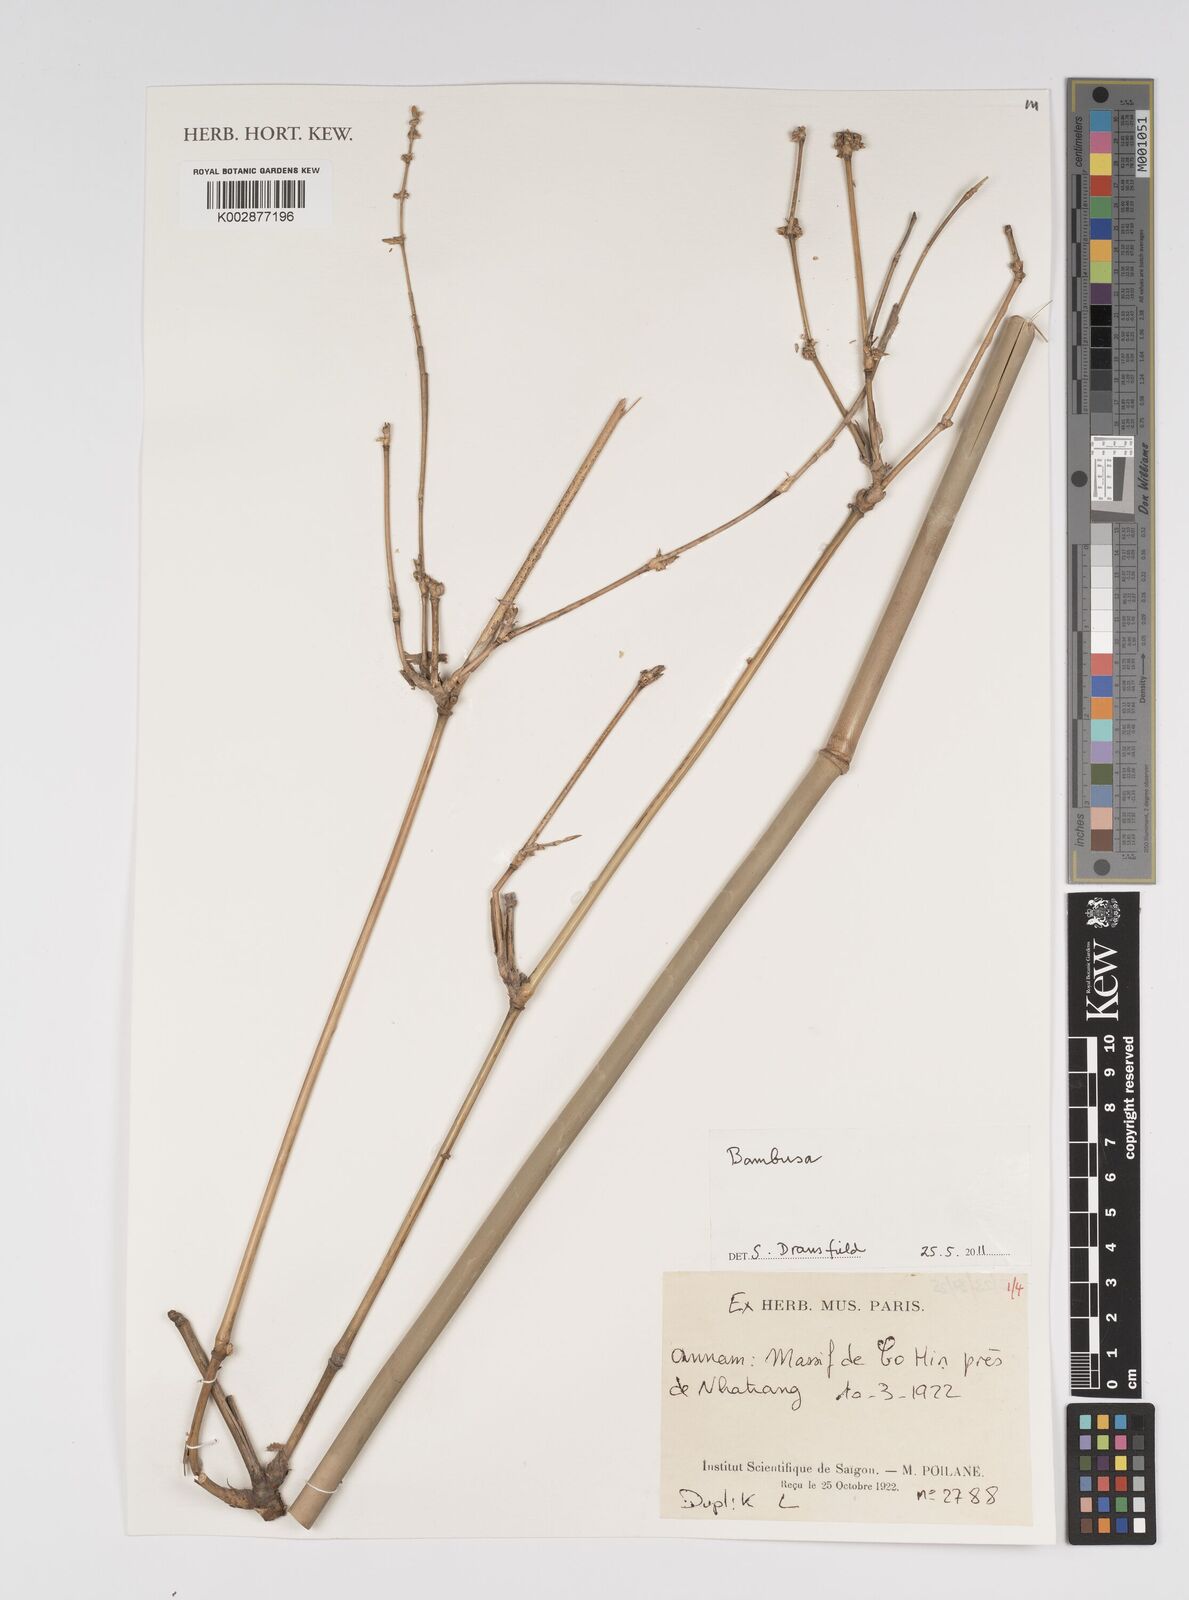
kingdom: Plantae
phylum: Tracheophyta
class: Liliopsida
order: Poales
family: Poaceae
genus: Bambusa
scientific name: Bambusa
